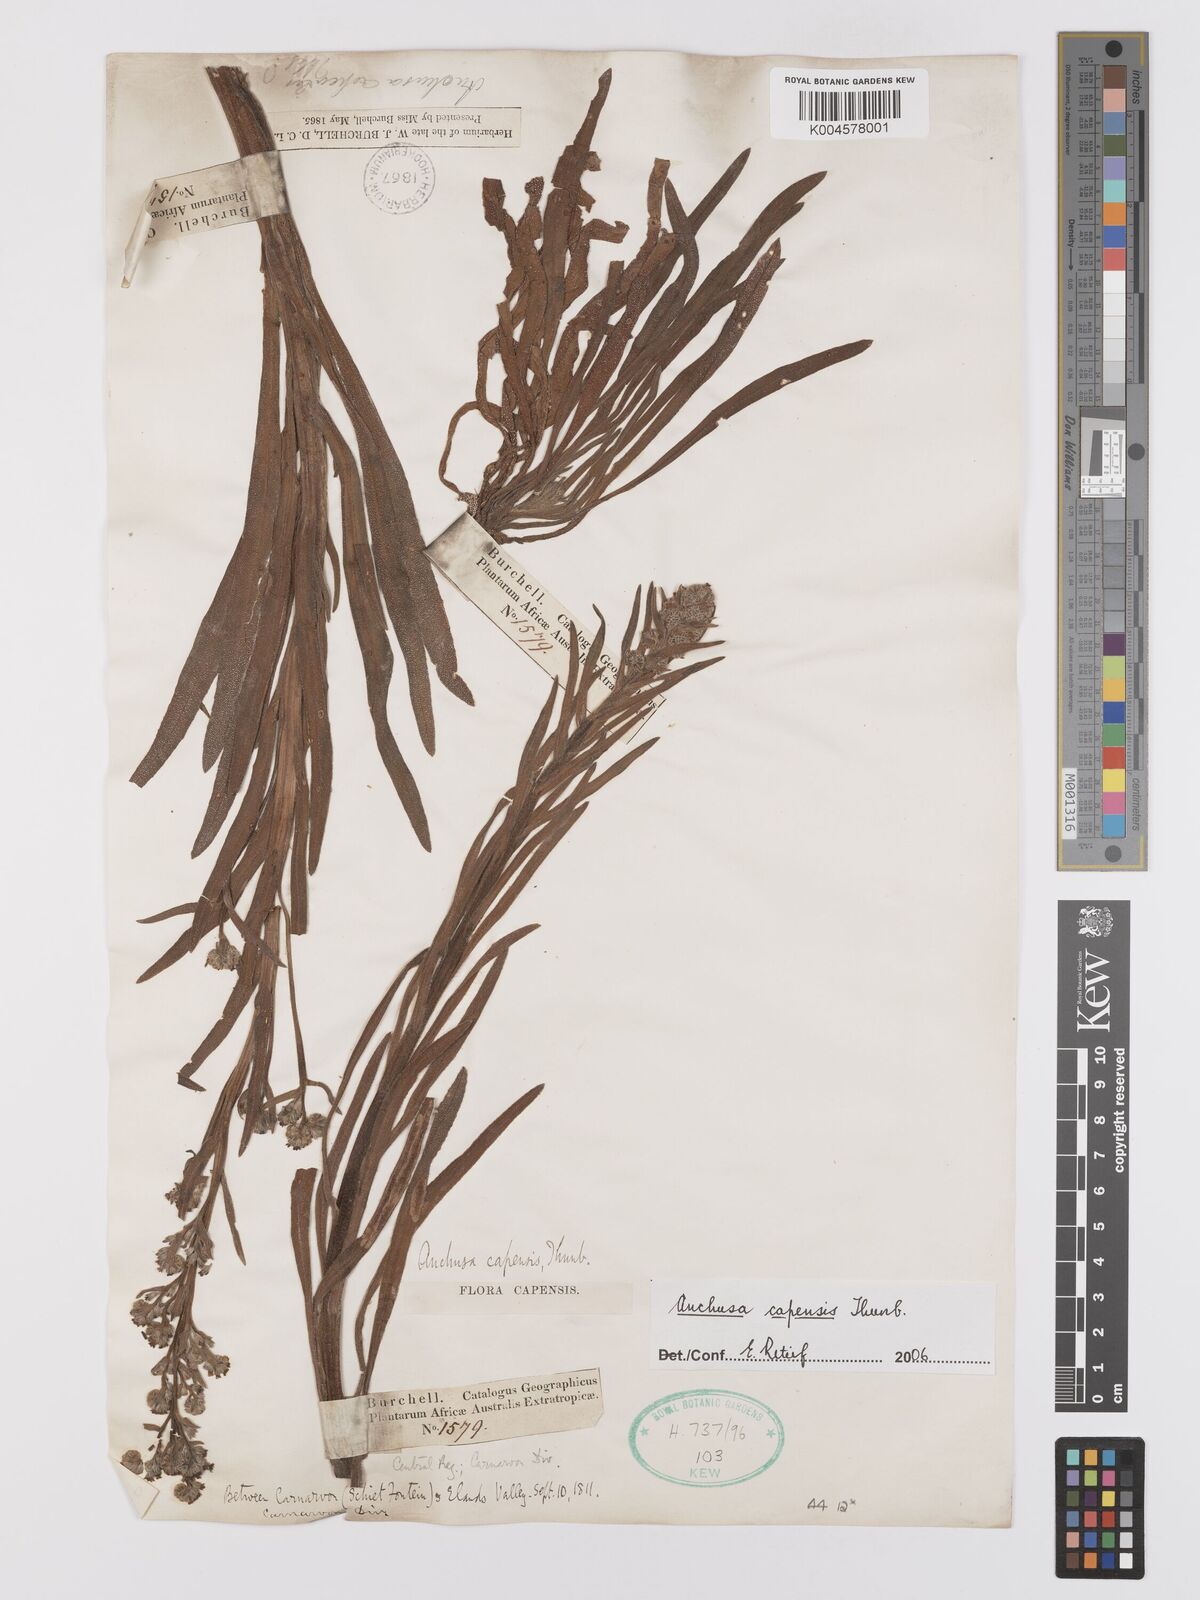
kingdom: Plantae
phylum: Tracheophyta
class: Magnoliopsida
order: Boraginales
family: Boraginaceae
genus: Anchusa
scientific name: Anchusa capensis
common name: Cape bugloss
